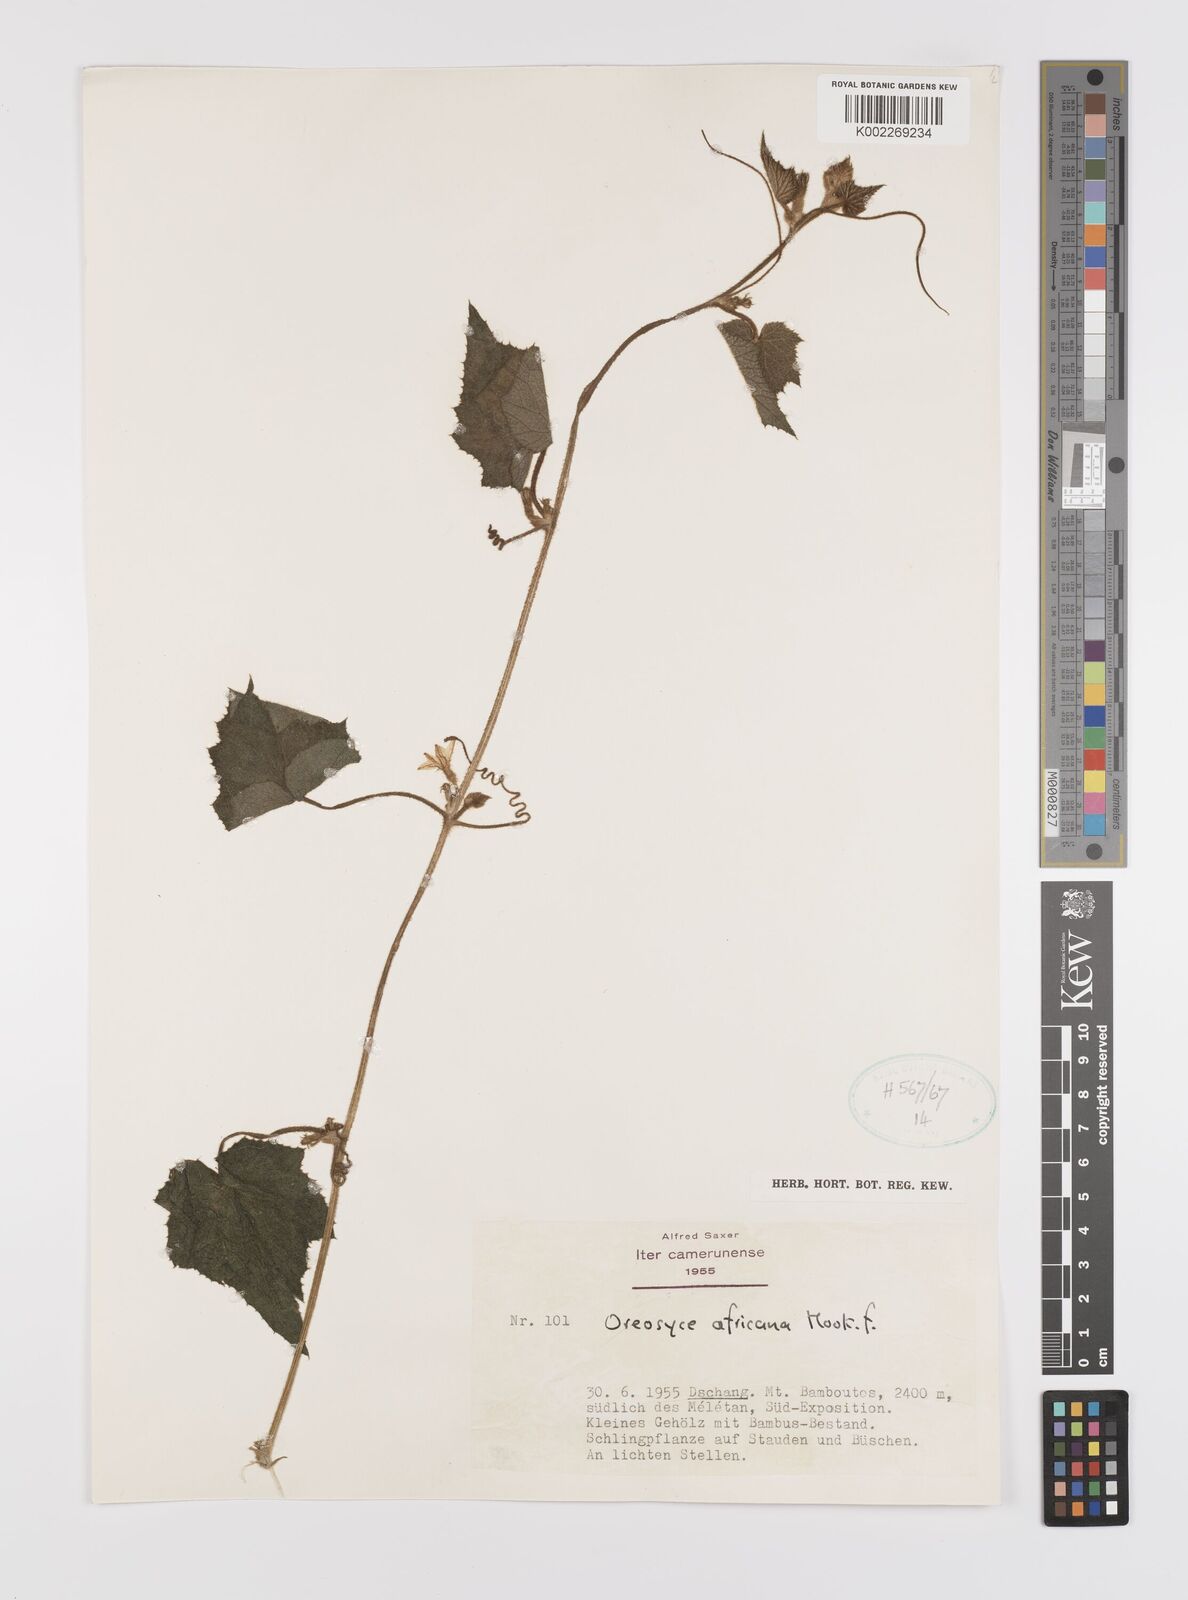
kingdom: Plantae
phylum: Tracheophyta
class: Magnoliopsida
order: Cucurbitales
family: Cucurbitaceae
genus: Cucumis
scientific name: Cucumis oreosyce
